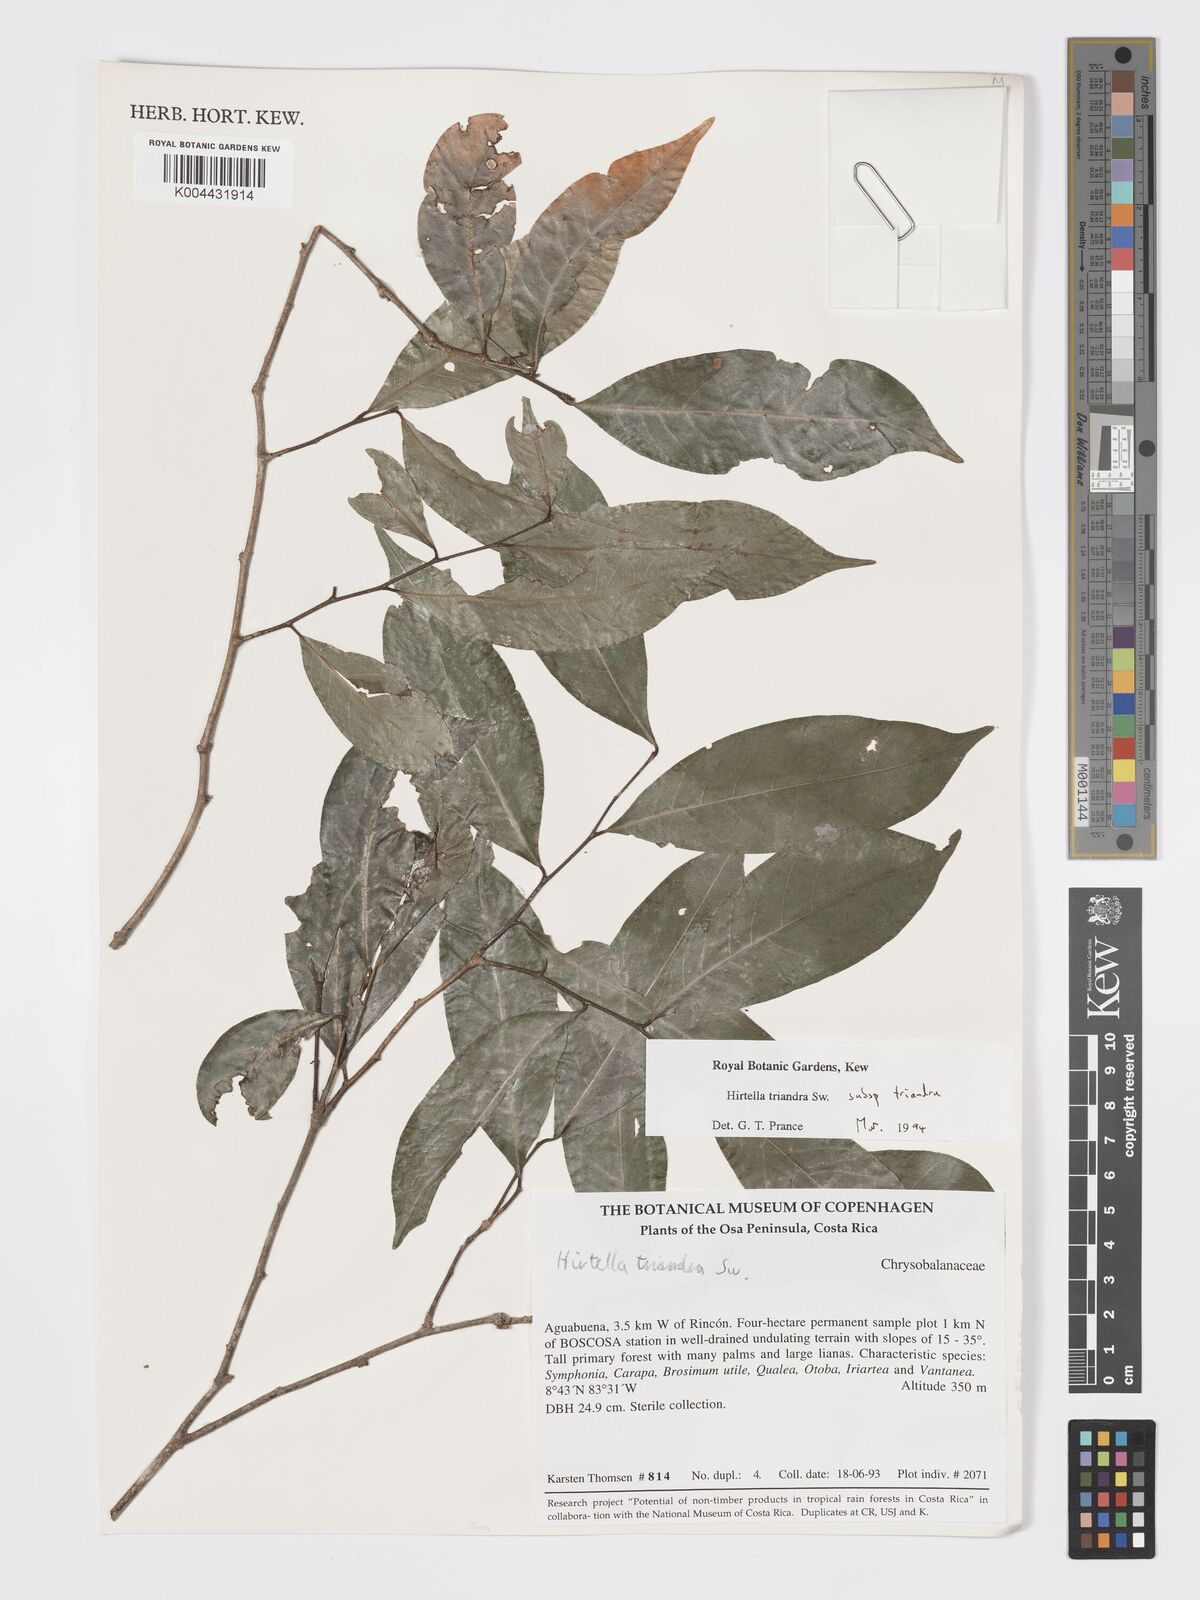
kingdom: Plantae
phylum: Tracheophyta
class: Magnoliopsida
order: Malpighiales
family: Chrysobalanaceae
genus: Hirtella
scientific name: Hirtella triandra
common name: Hairy plum
